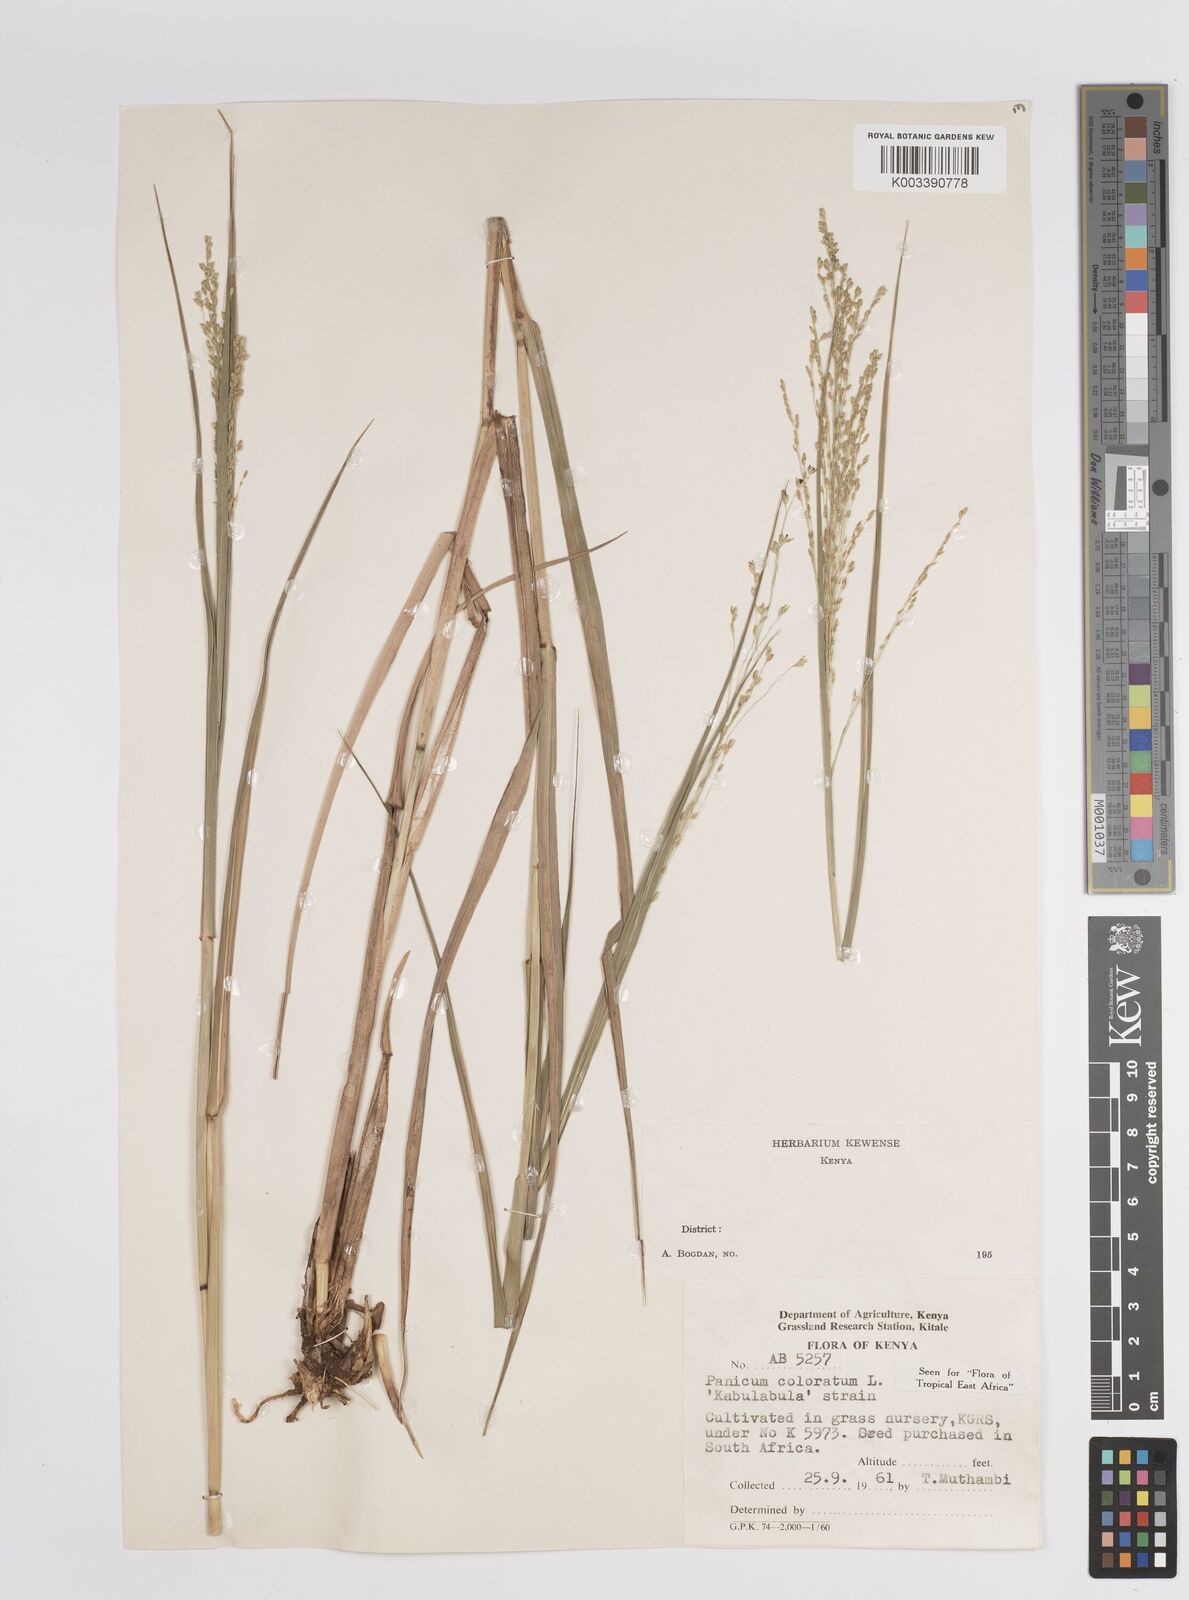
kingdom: Plantae
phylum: Tracheophyta
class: Liliopsida
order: Poales
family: Poaceae
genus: Panicum
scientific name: Panicum coloratum
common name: Kleingrass
